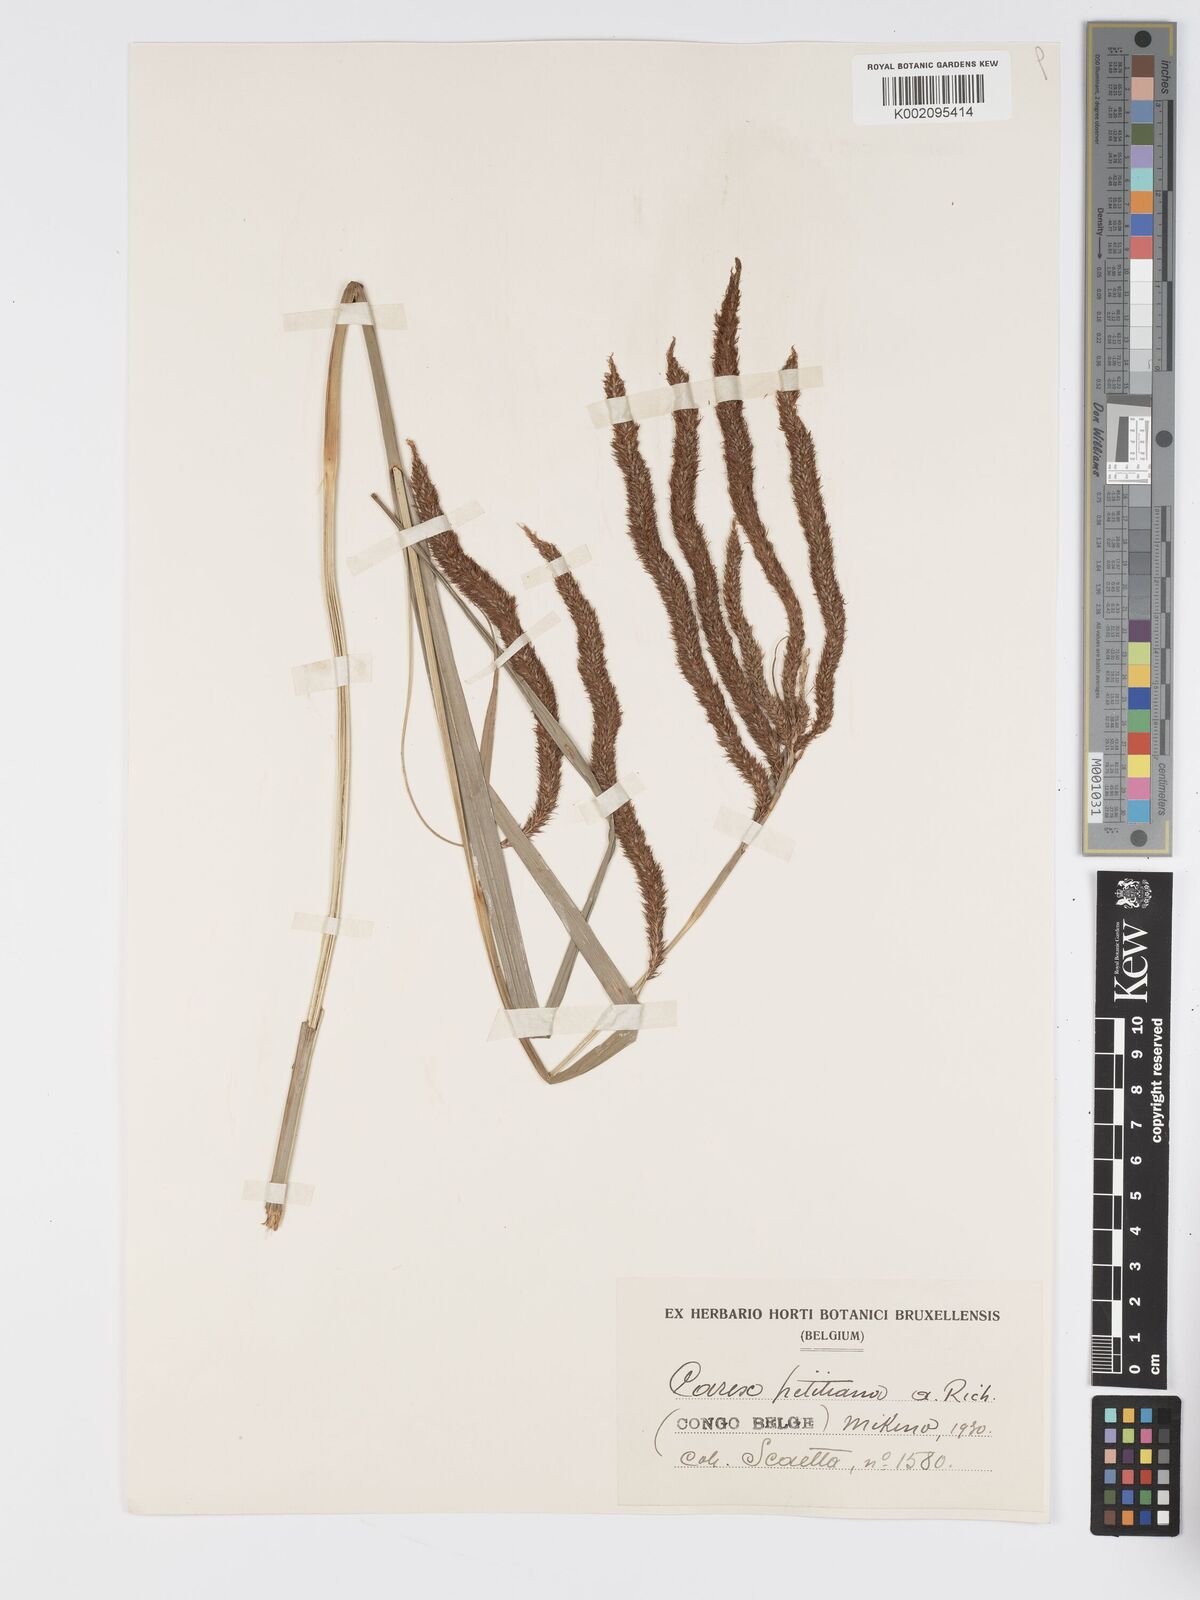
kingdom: Plantae
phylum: Tracheophyta
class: Liliopsida
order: Poales
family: Cyperaceae
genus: Carex
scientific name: Carex petitiana
